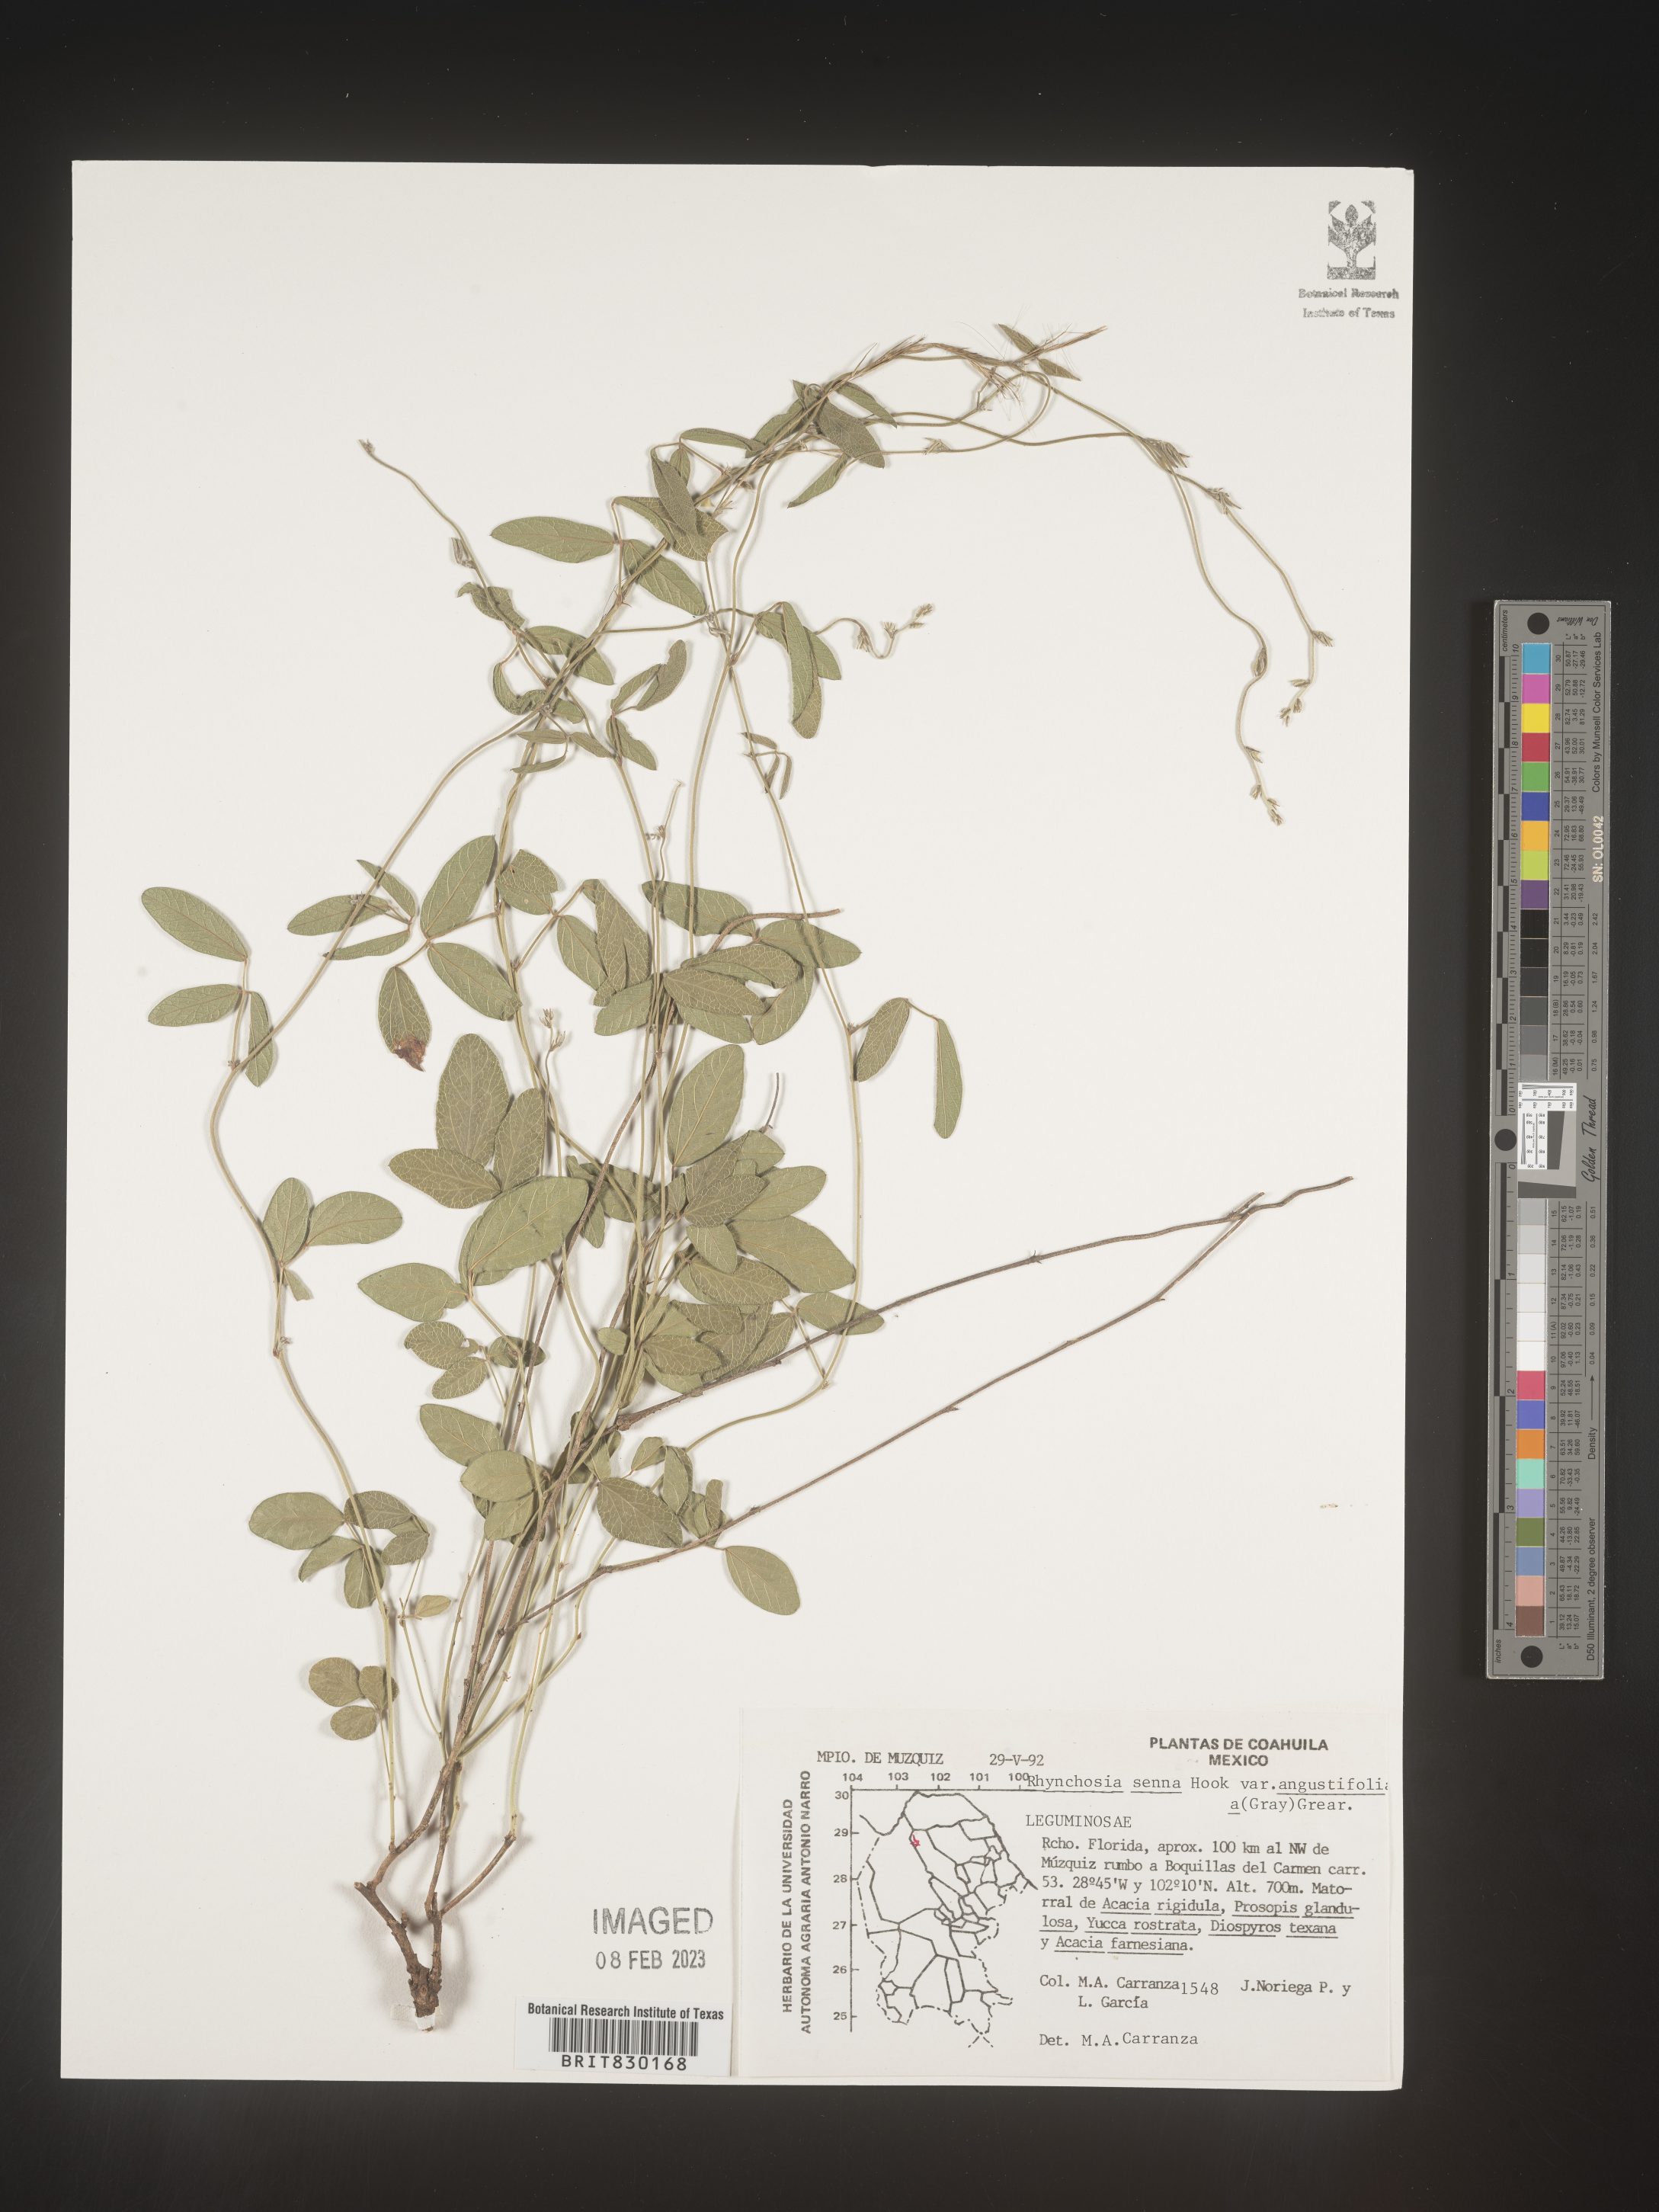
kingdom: Plantae
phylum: Tracheophyta
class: Magnoliopsida
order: Fabales
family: Fabaceae
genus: Rhynchosia
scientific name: Rhynchosia
